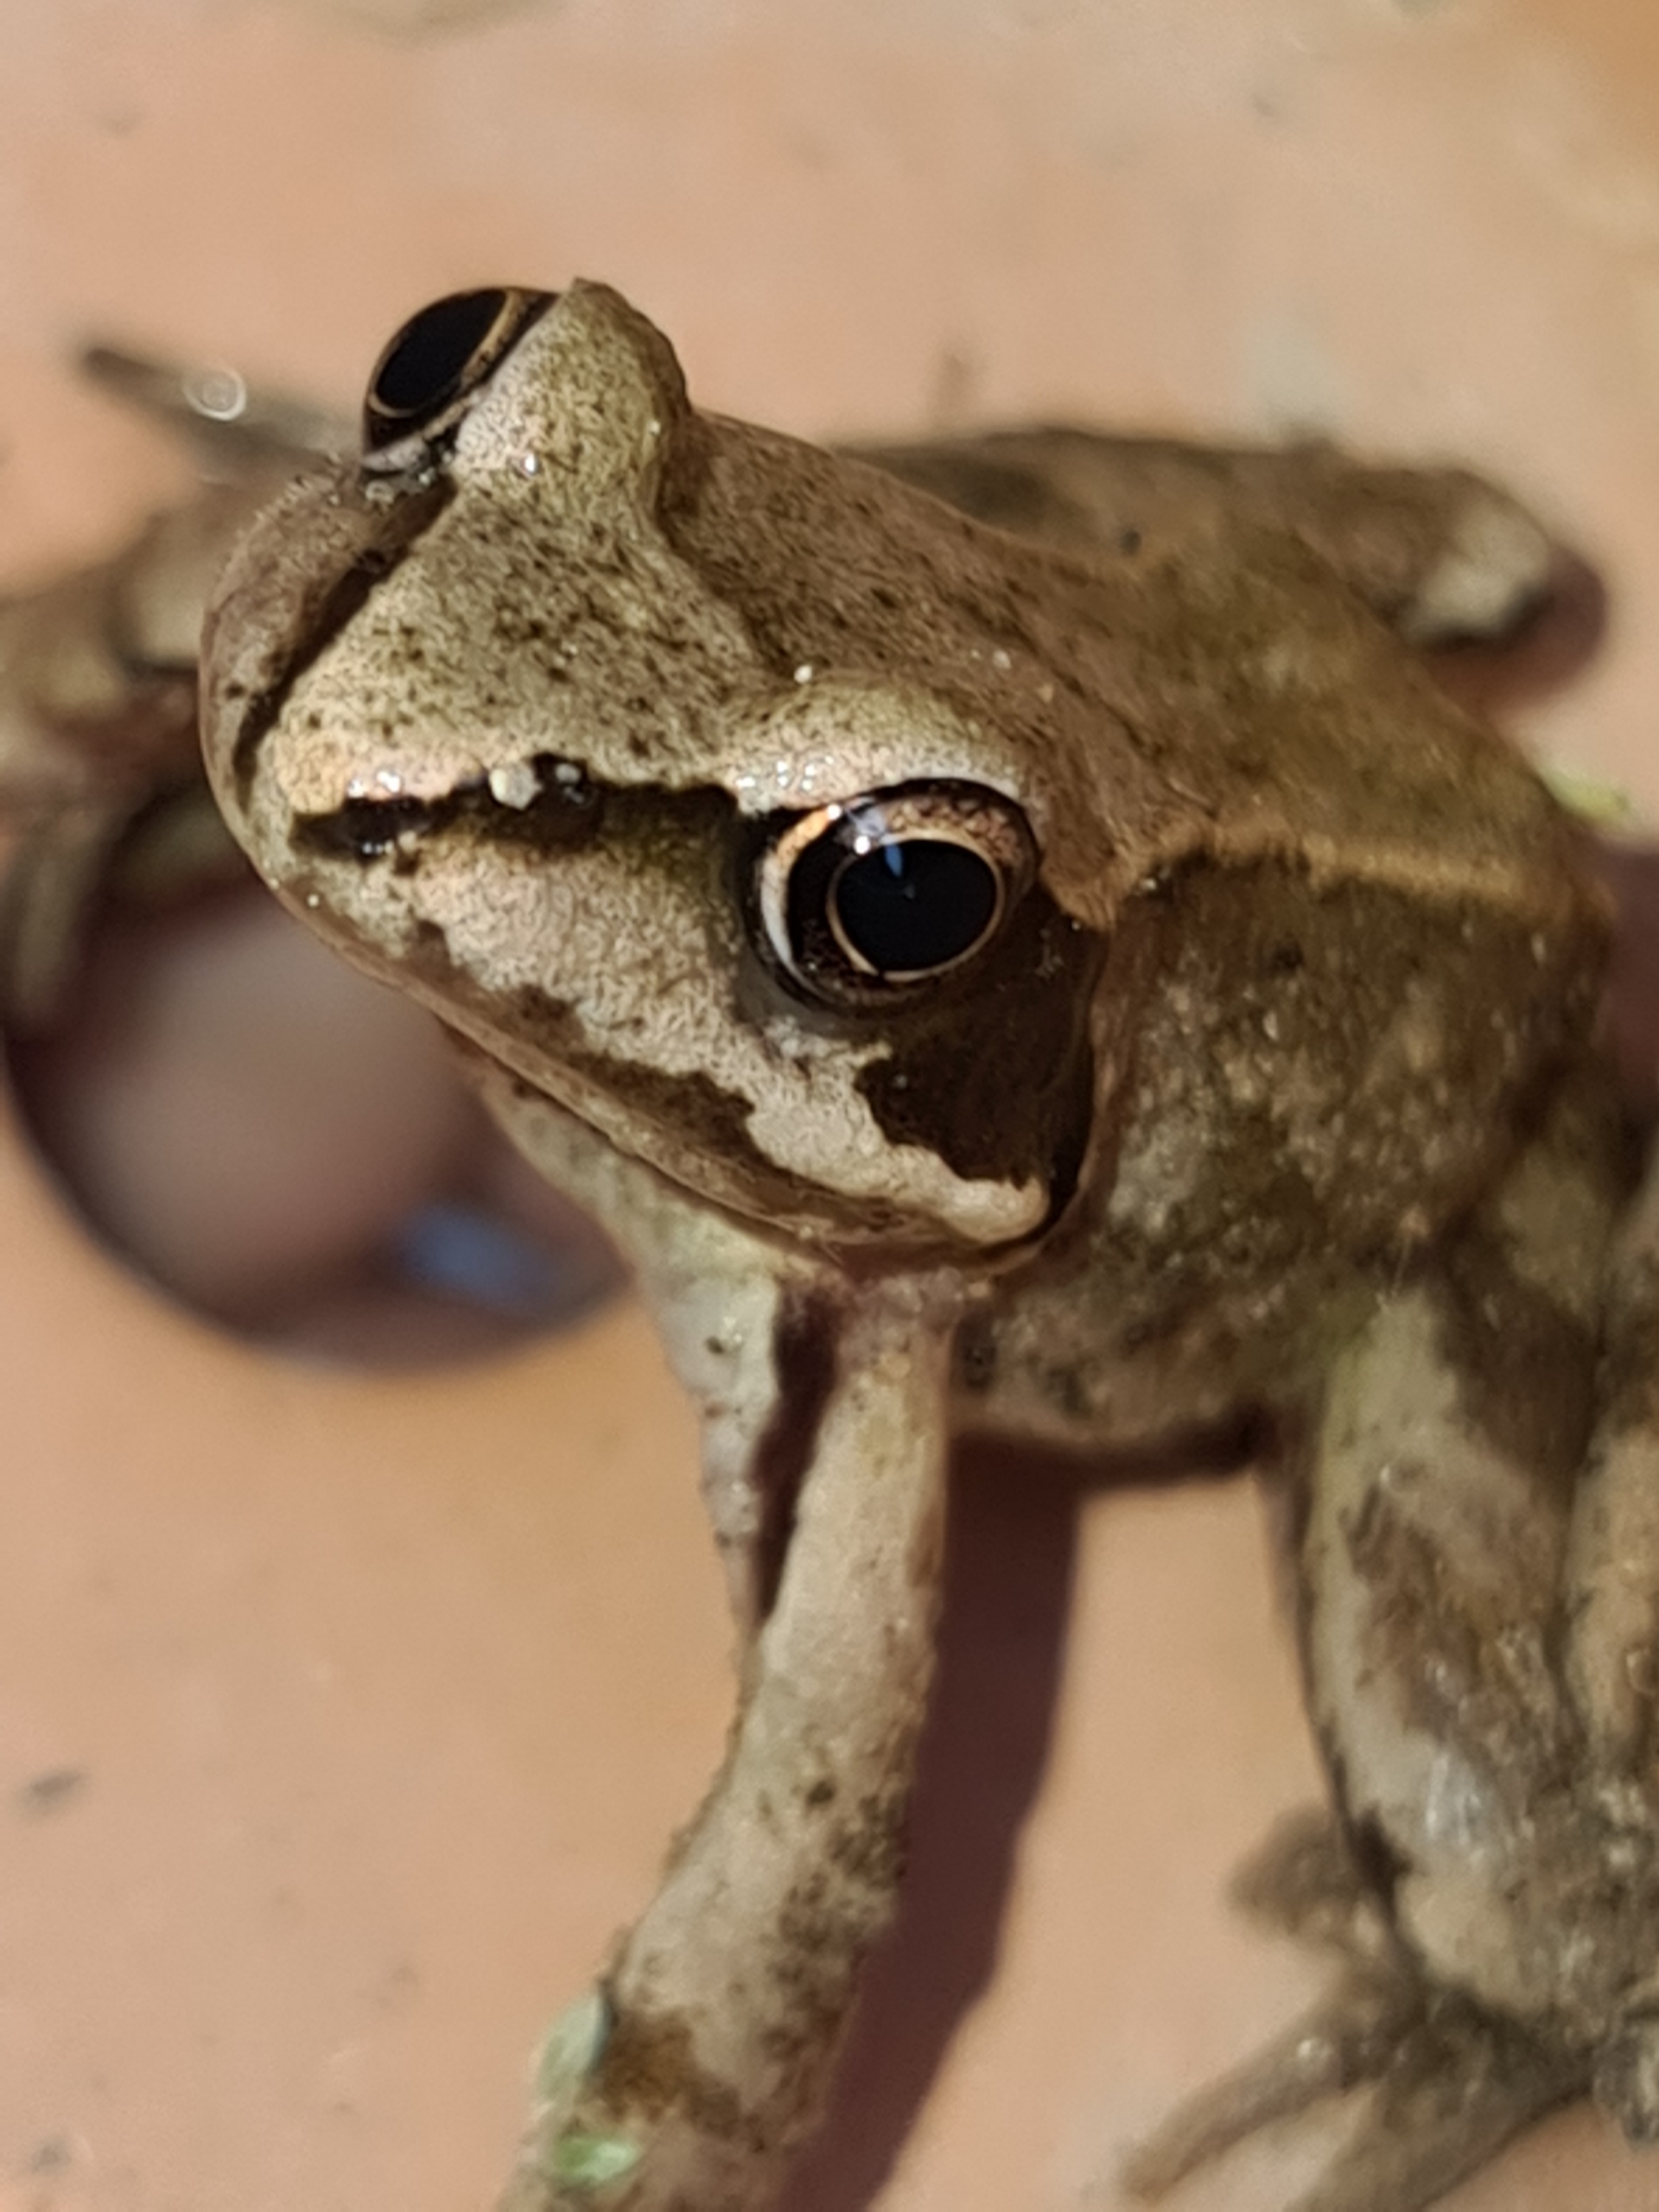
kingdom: Animalia
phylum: Chordata
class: Amphibia
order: Anura
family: Ranidae
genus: Rana
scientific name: Rana temporaria
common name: Butsnudet frø
